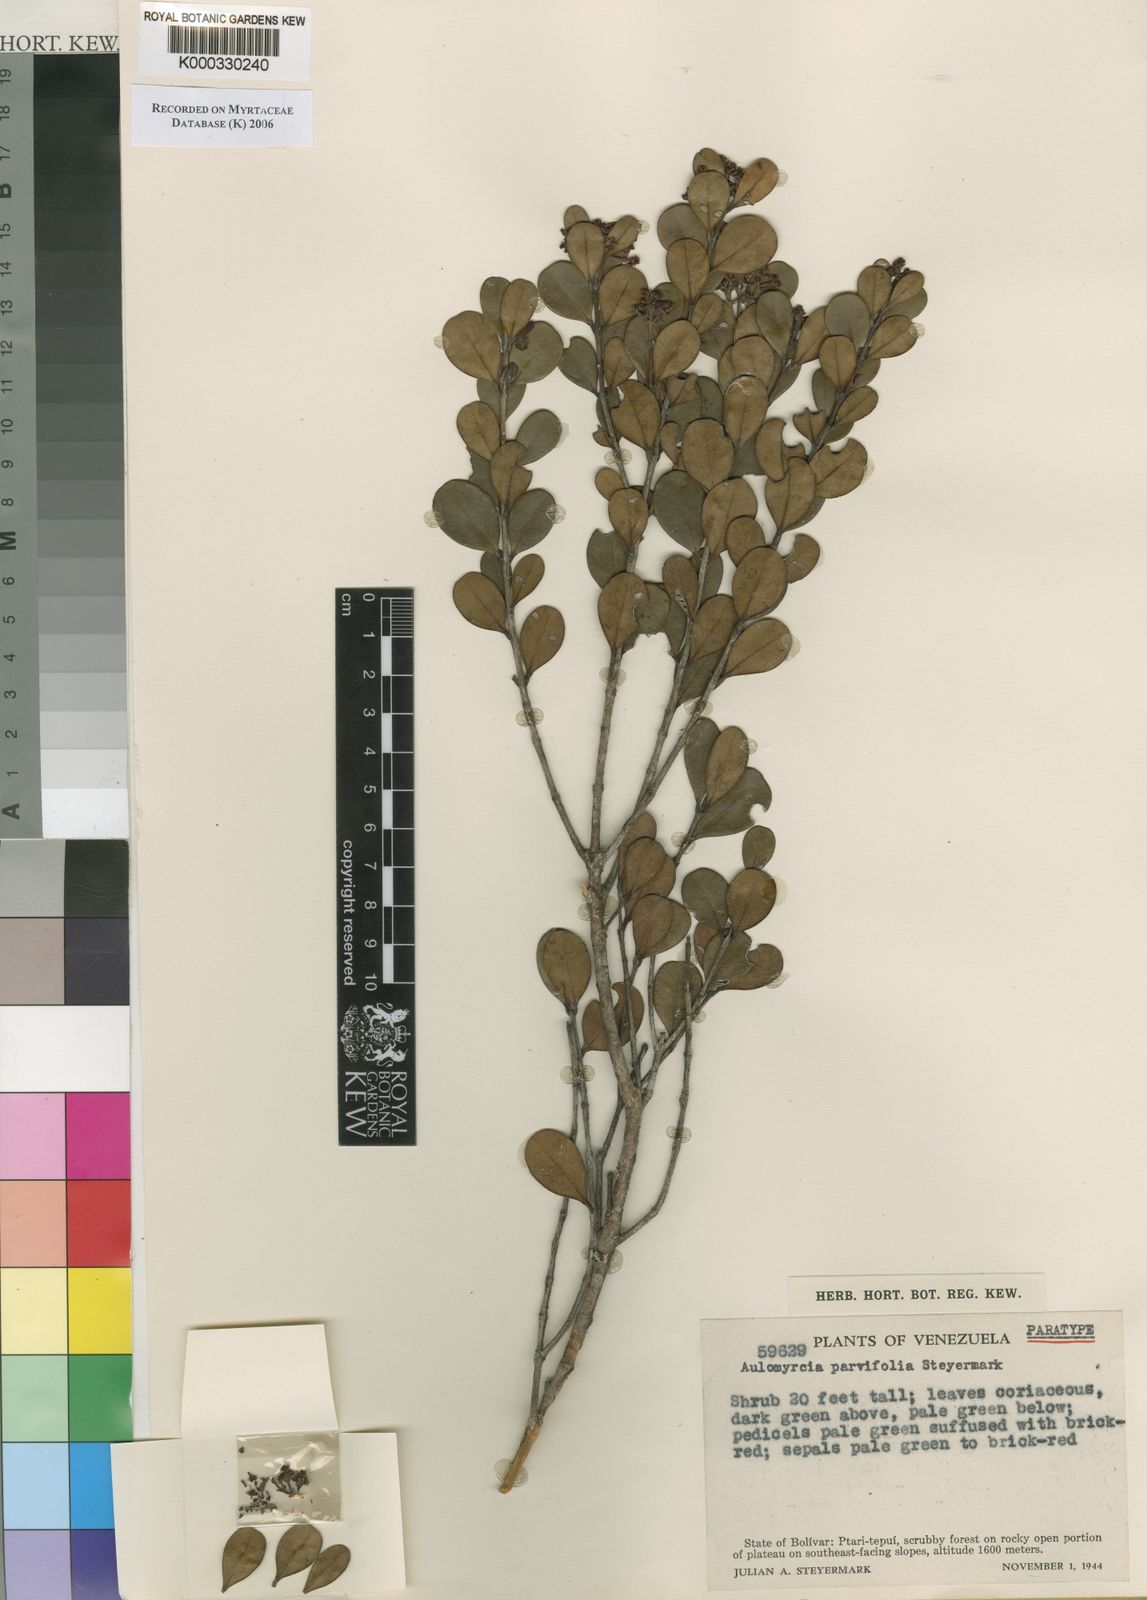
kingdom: Plantae
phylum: Tracheophyta
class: Magnoliopsida
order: Myrtales
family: Myrtaceae
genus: Myrcia
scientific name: Myrcia rotundata
